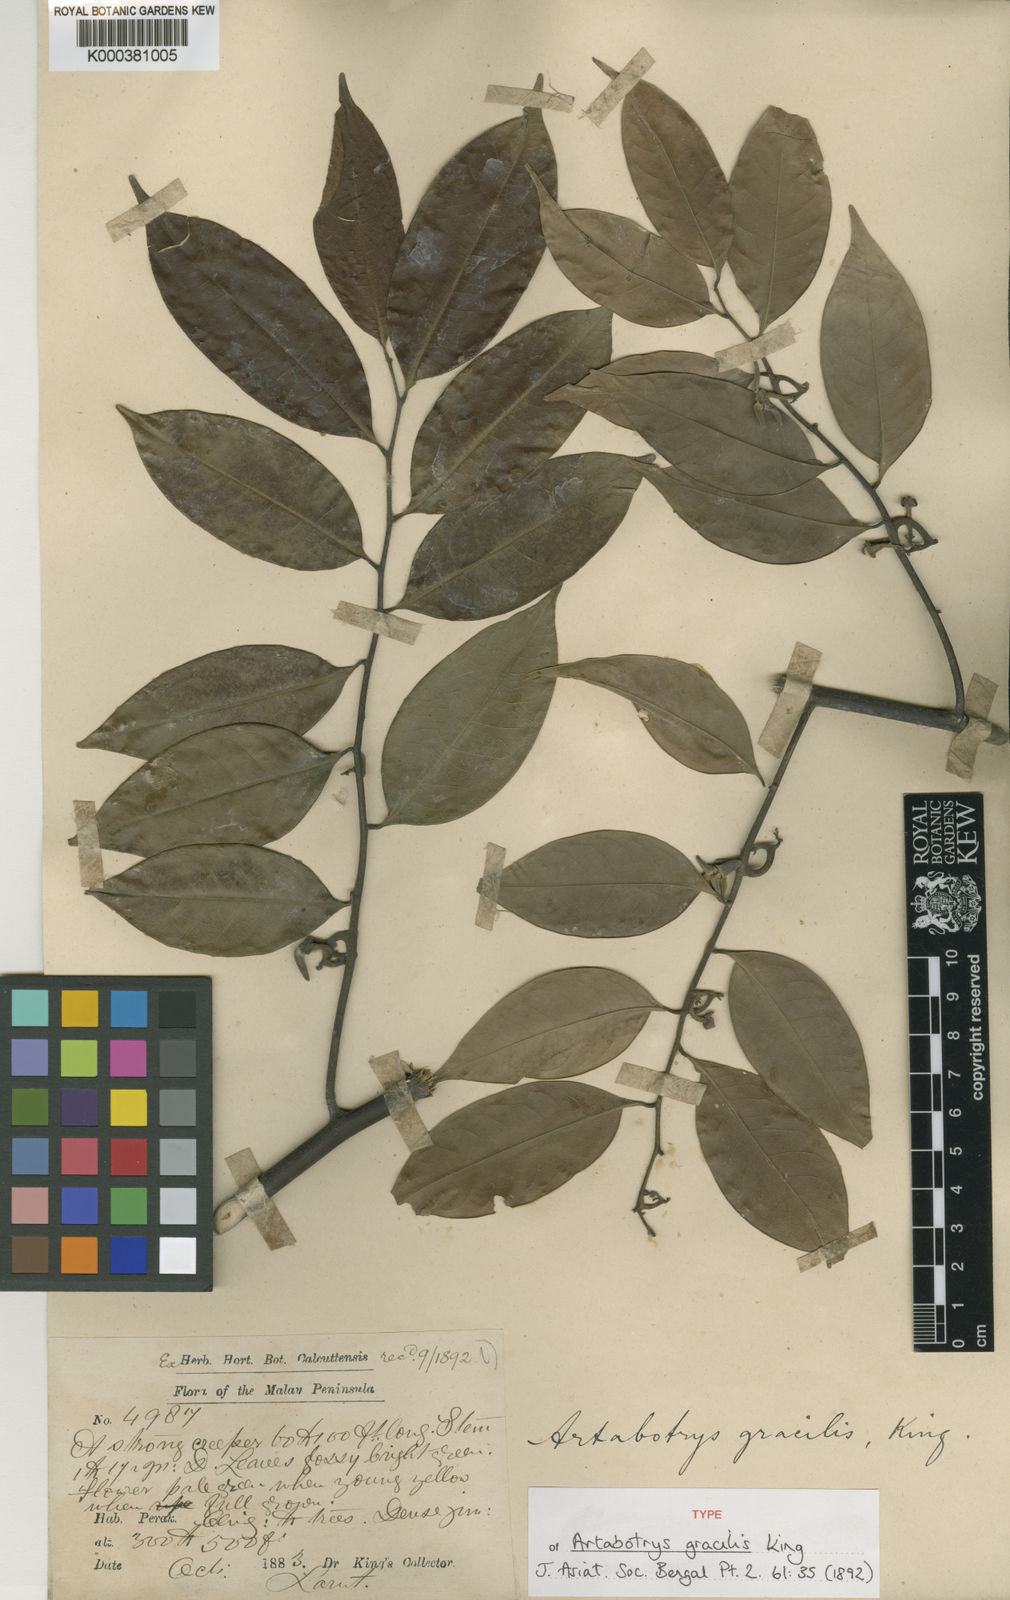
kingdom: Plantae
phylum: Tracheophyta
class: Magnoliopsida
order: Magnoliales
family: Annonaceae
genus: Artabotrys
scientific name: Artabotrys gracilis
